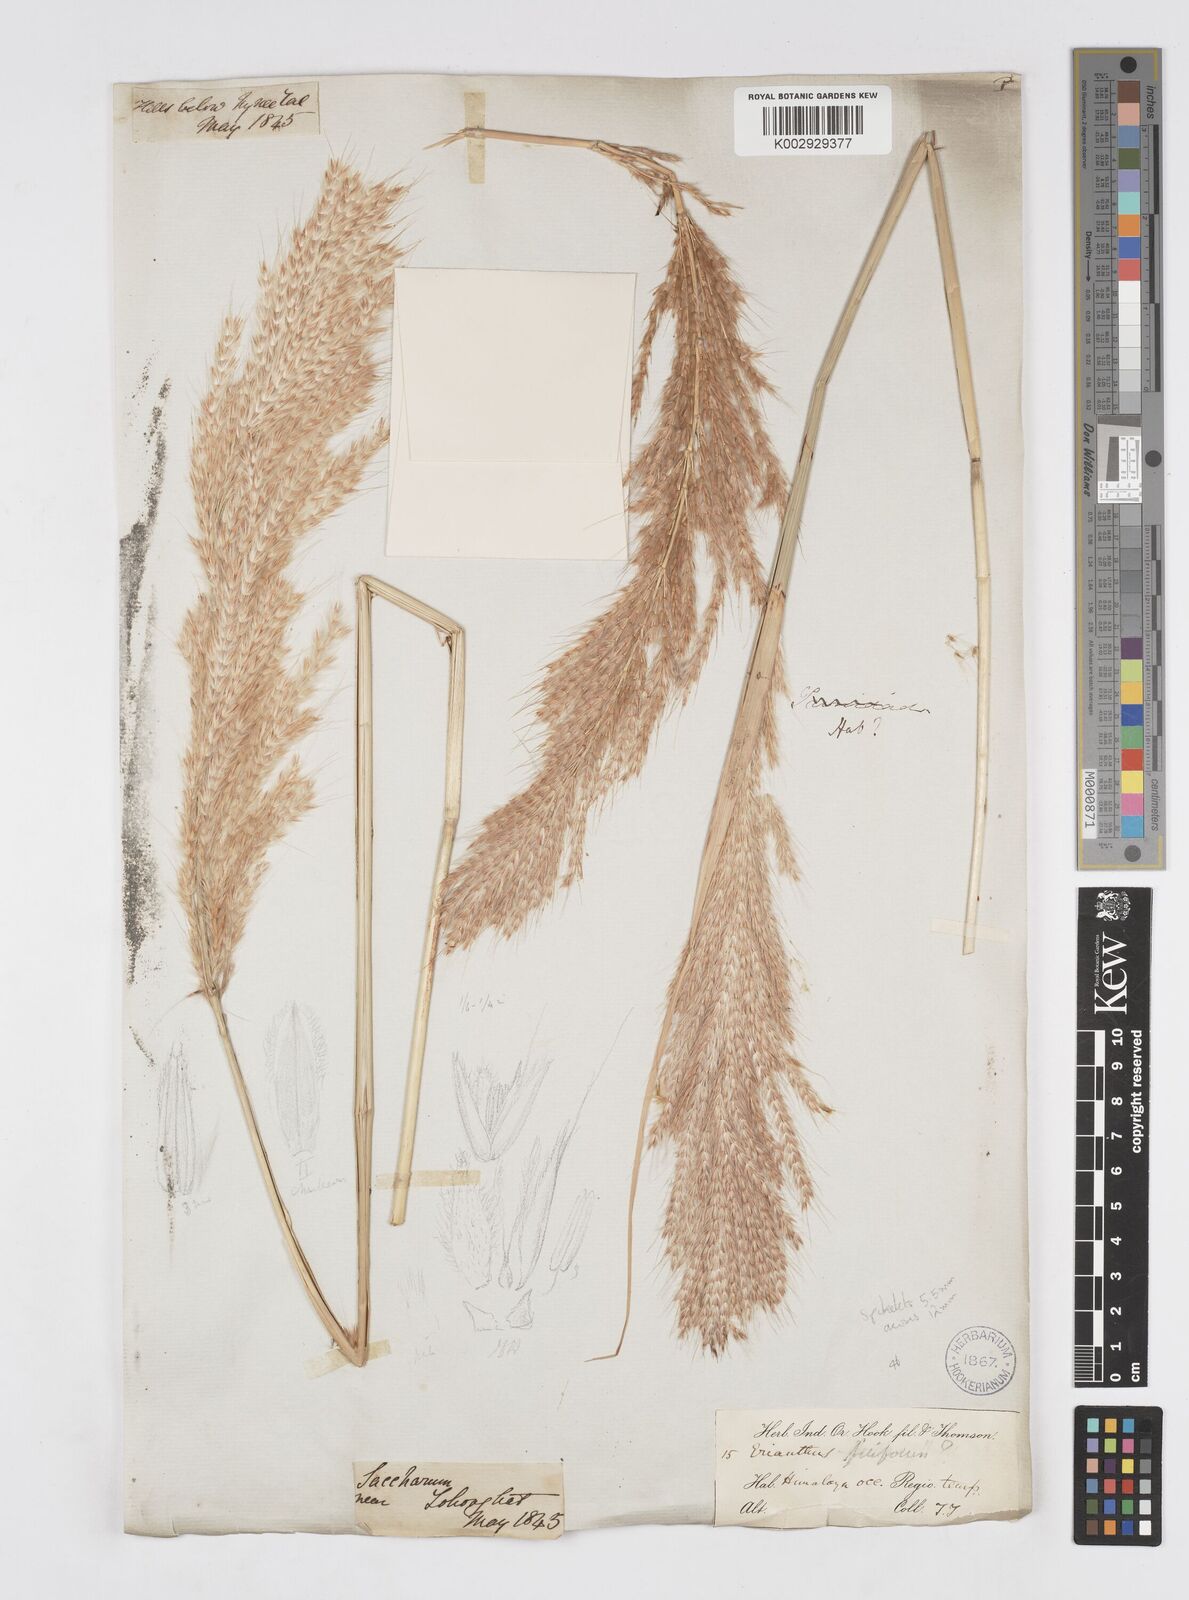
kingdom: Plantae
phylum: Tracheophyta
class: Liliopsida
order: Poales
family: Poaceae
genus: Saccharum
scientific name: Saccharum filifolium
